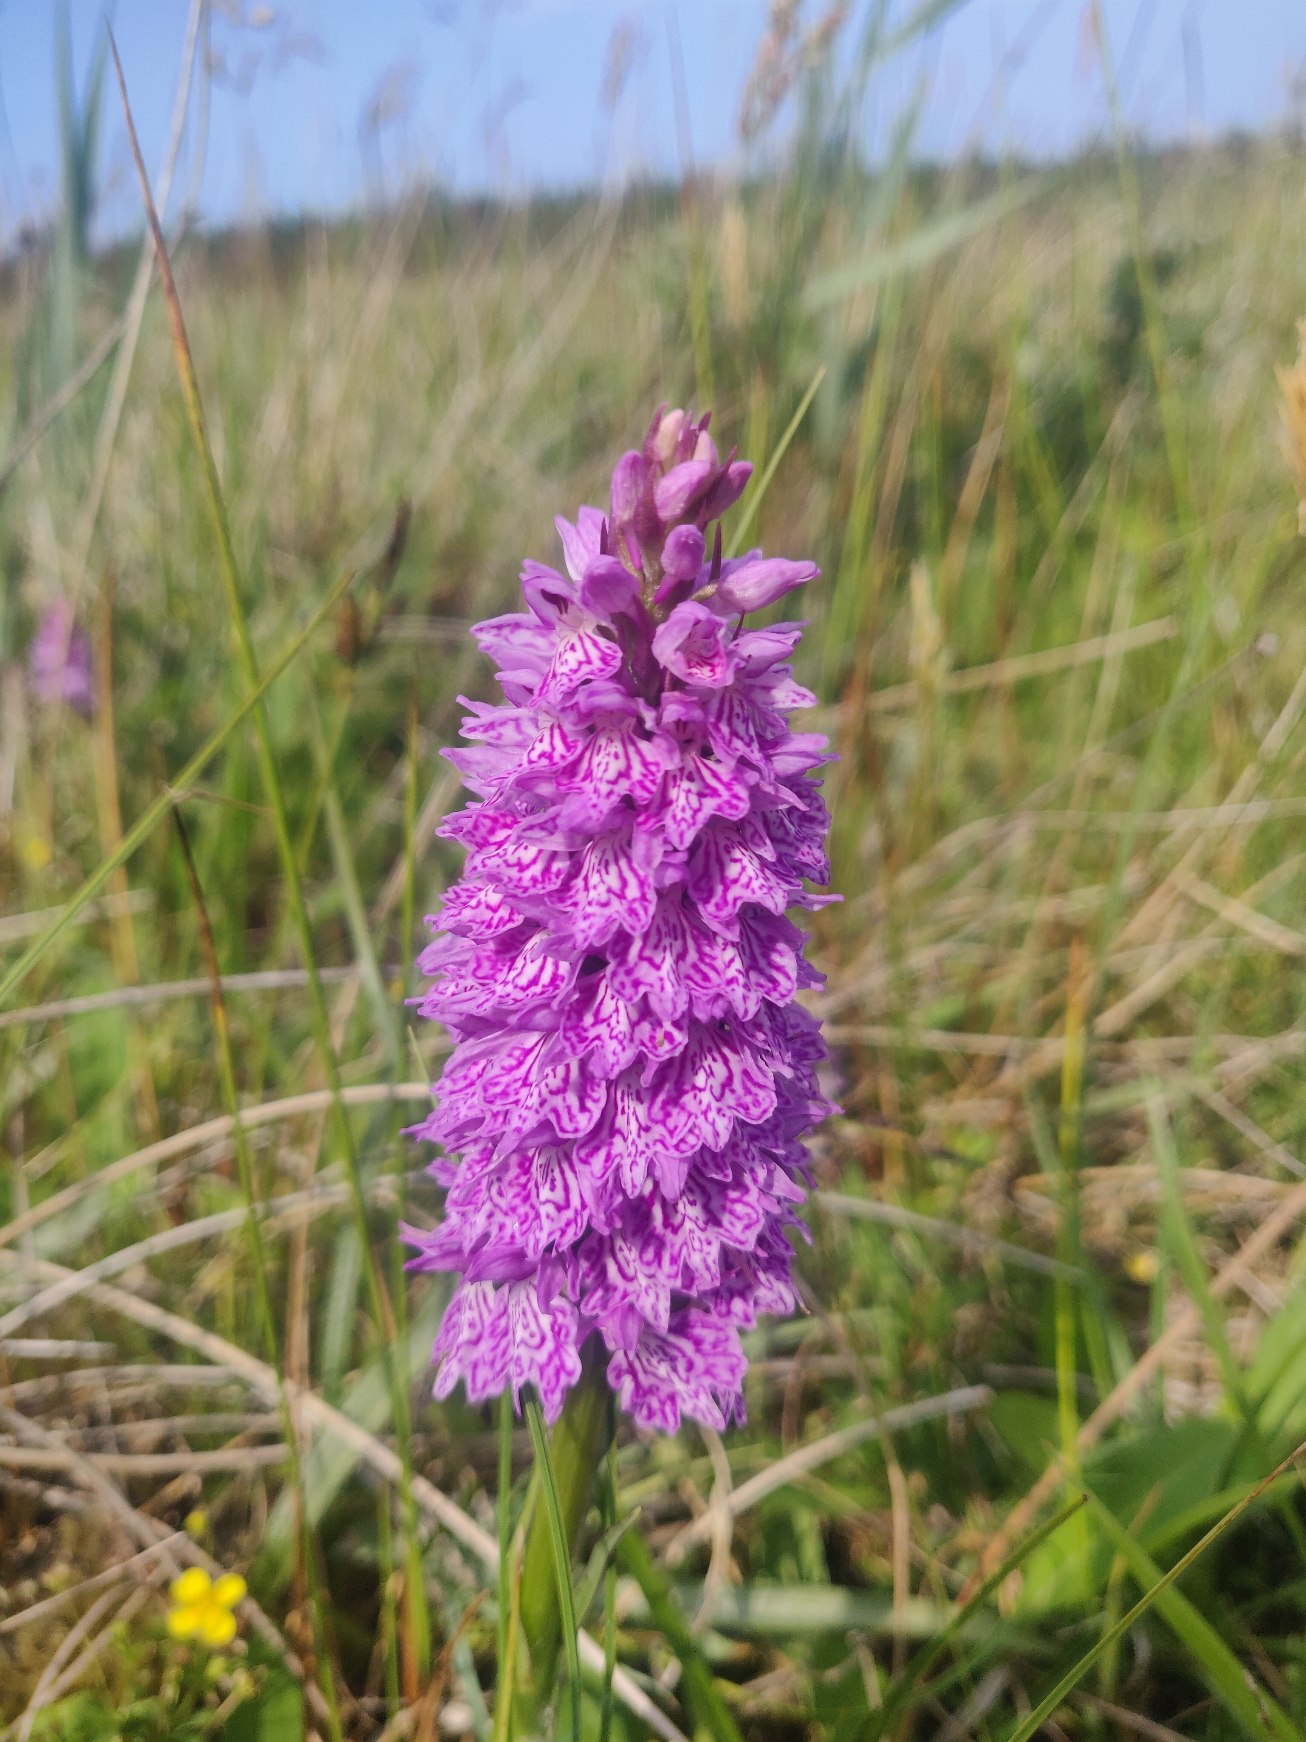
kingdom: Plantae
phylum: Tracheophyta
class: Liliopsida
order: Asparagales
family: Orchidaceae
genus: Dactylorhiza
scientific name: Dactylorhiza maculata
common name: Plettet gøgeurt
